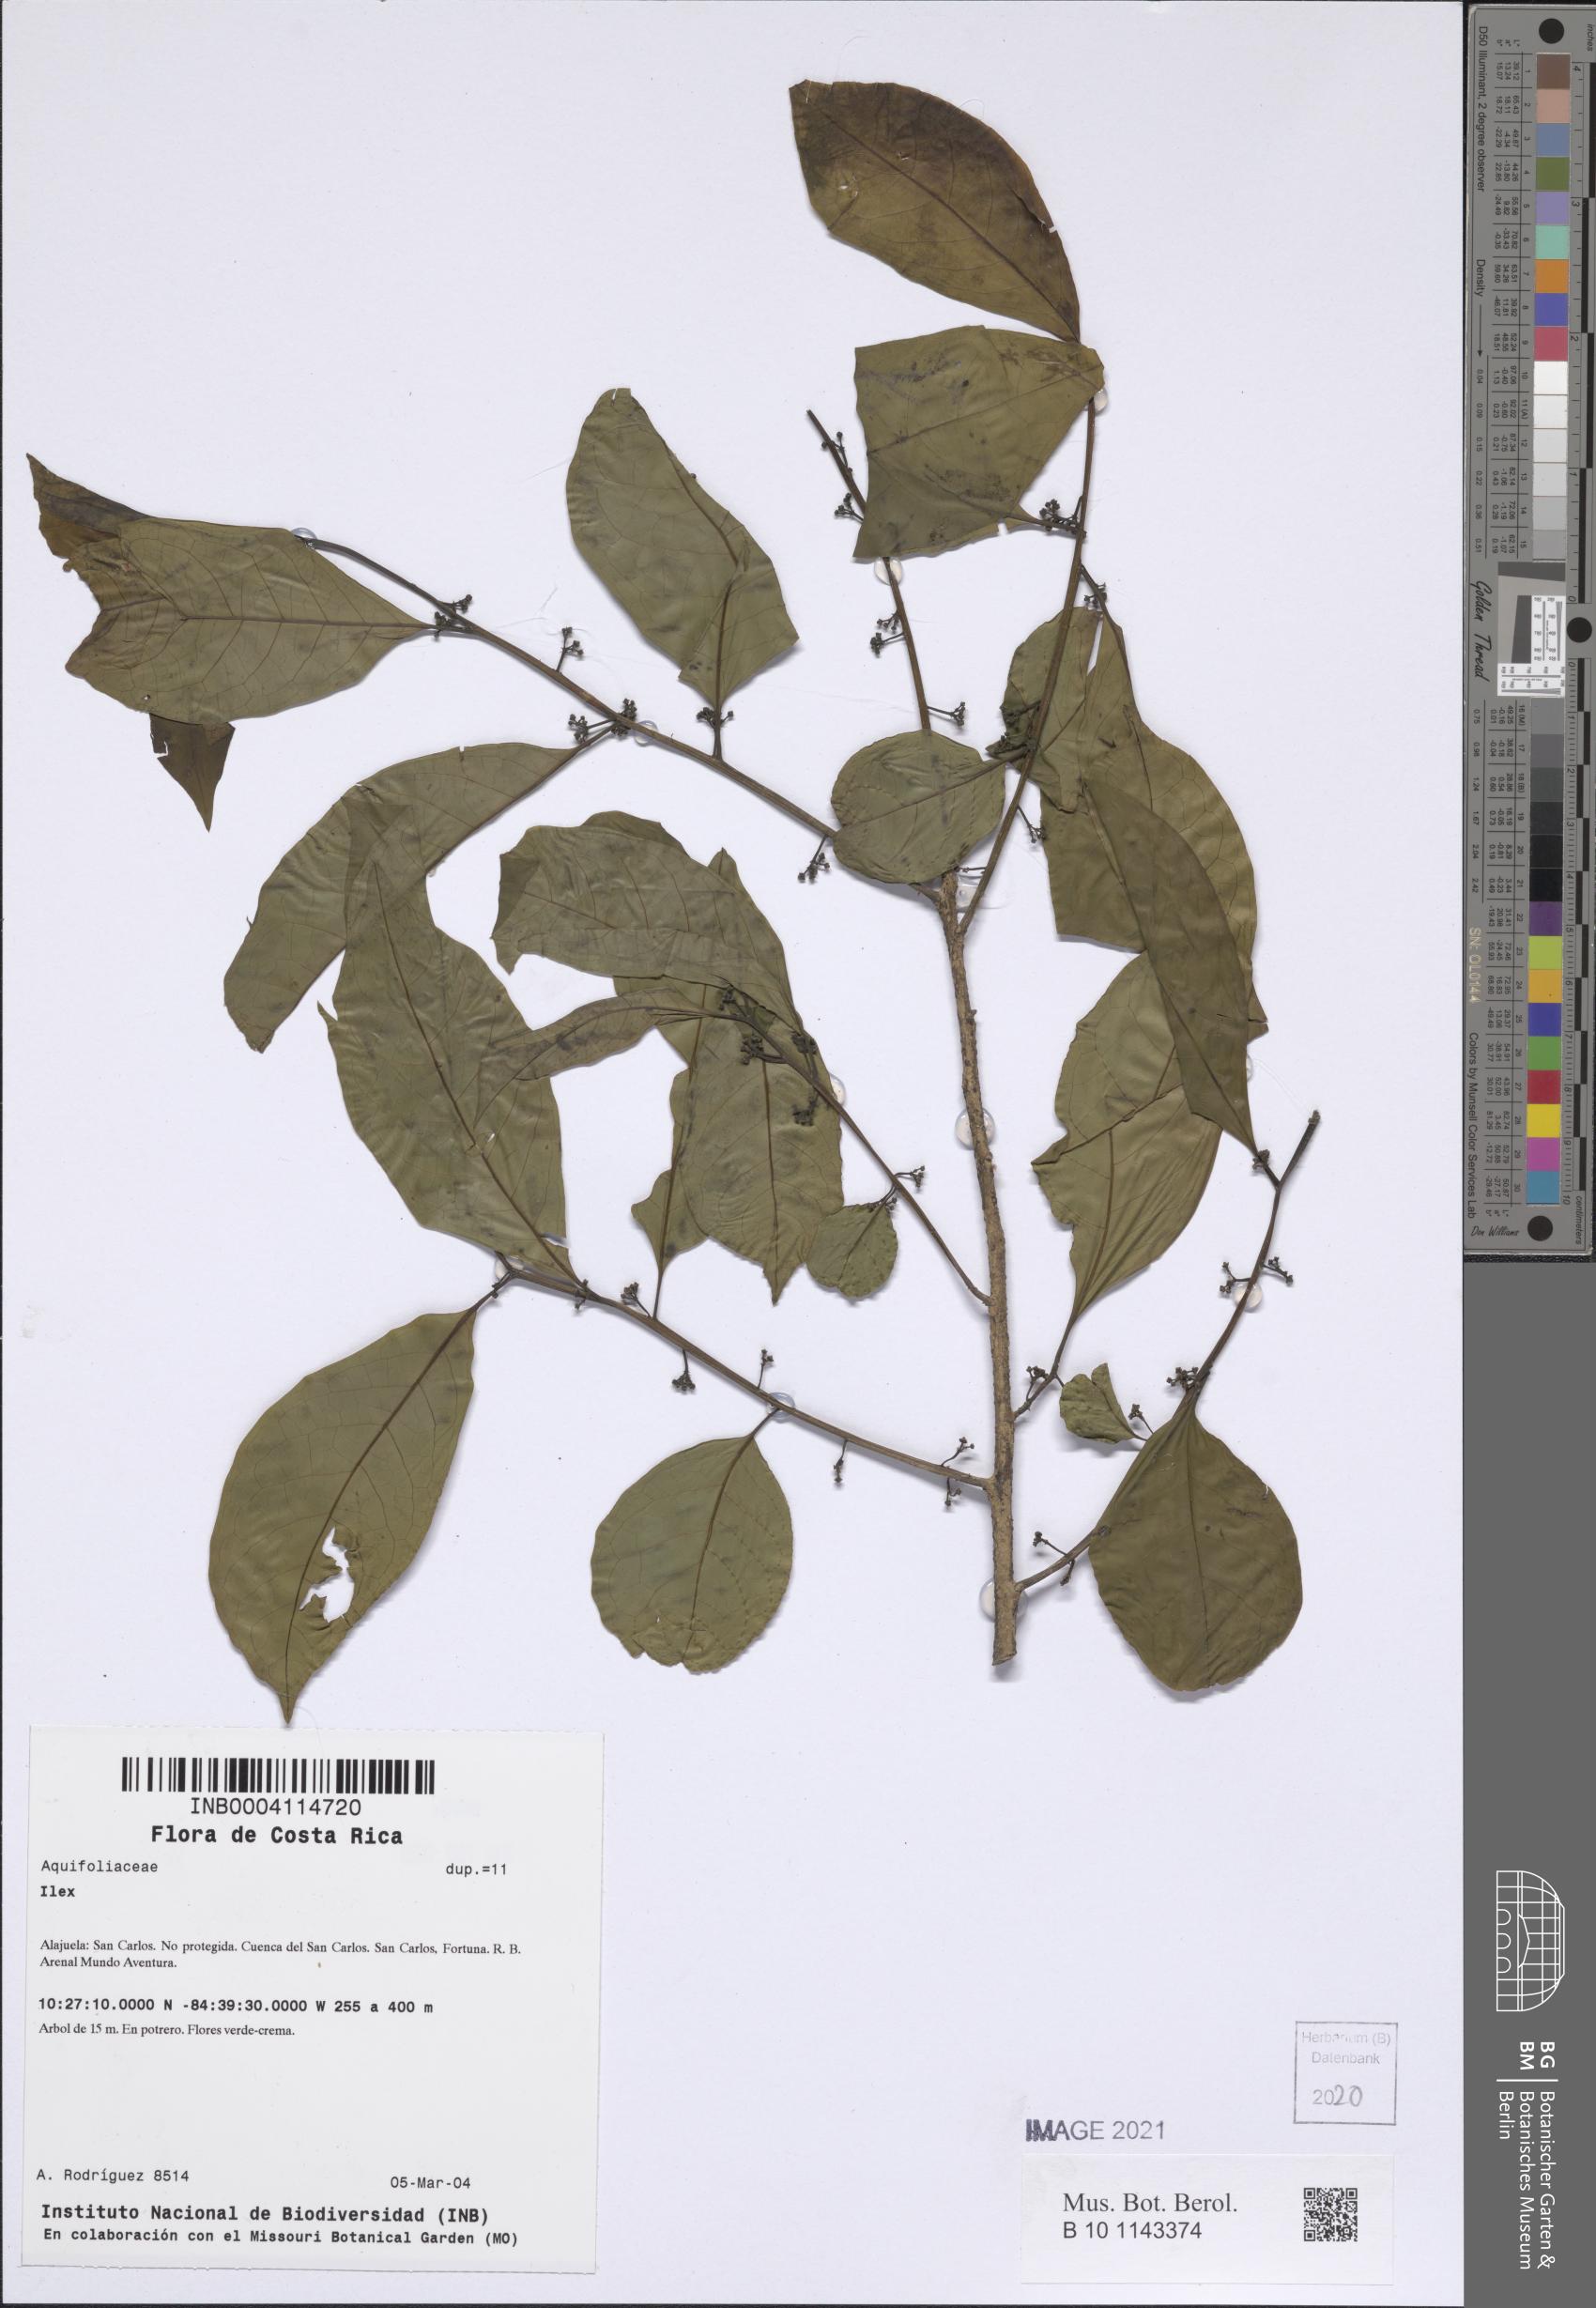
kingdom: Plantae
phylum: Tracheophyta
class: Magnoliopsida
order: Aquifoliales
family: Aquifoliaceae
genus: Ilex
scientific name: Ilex
